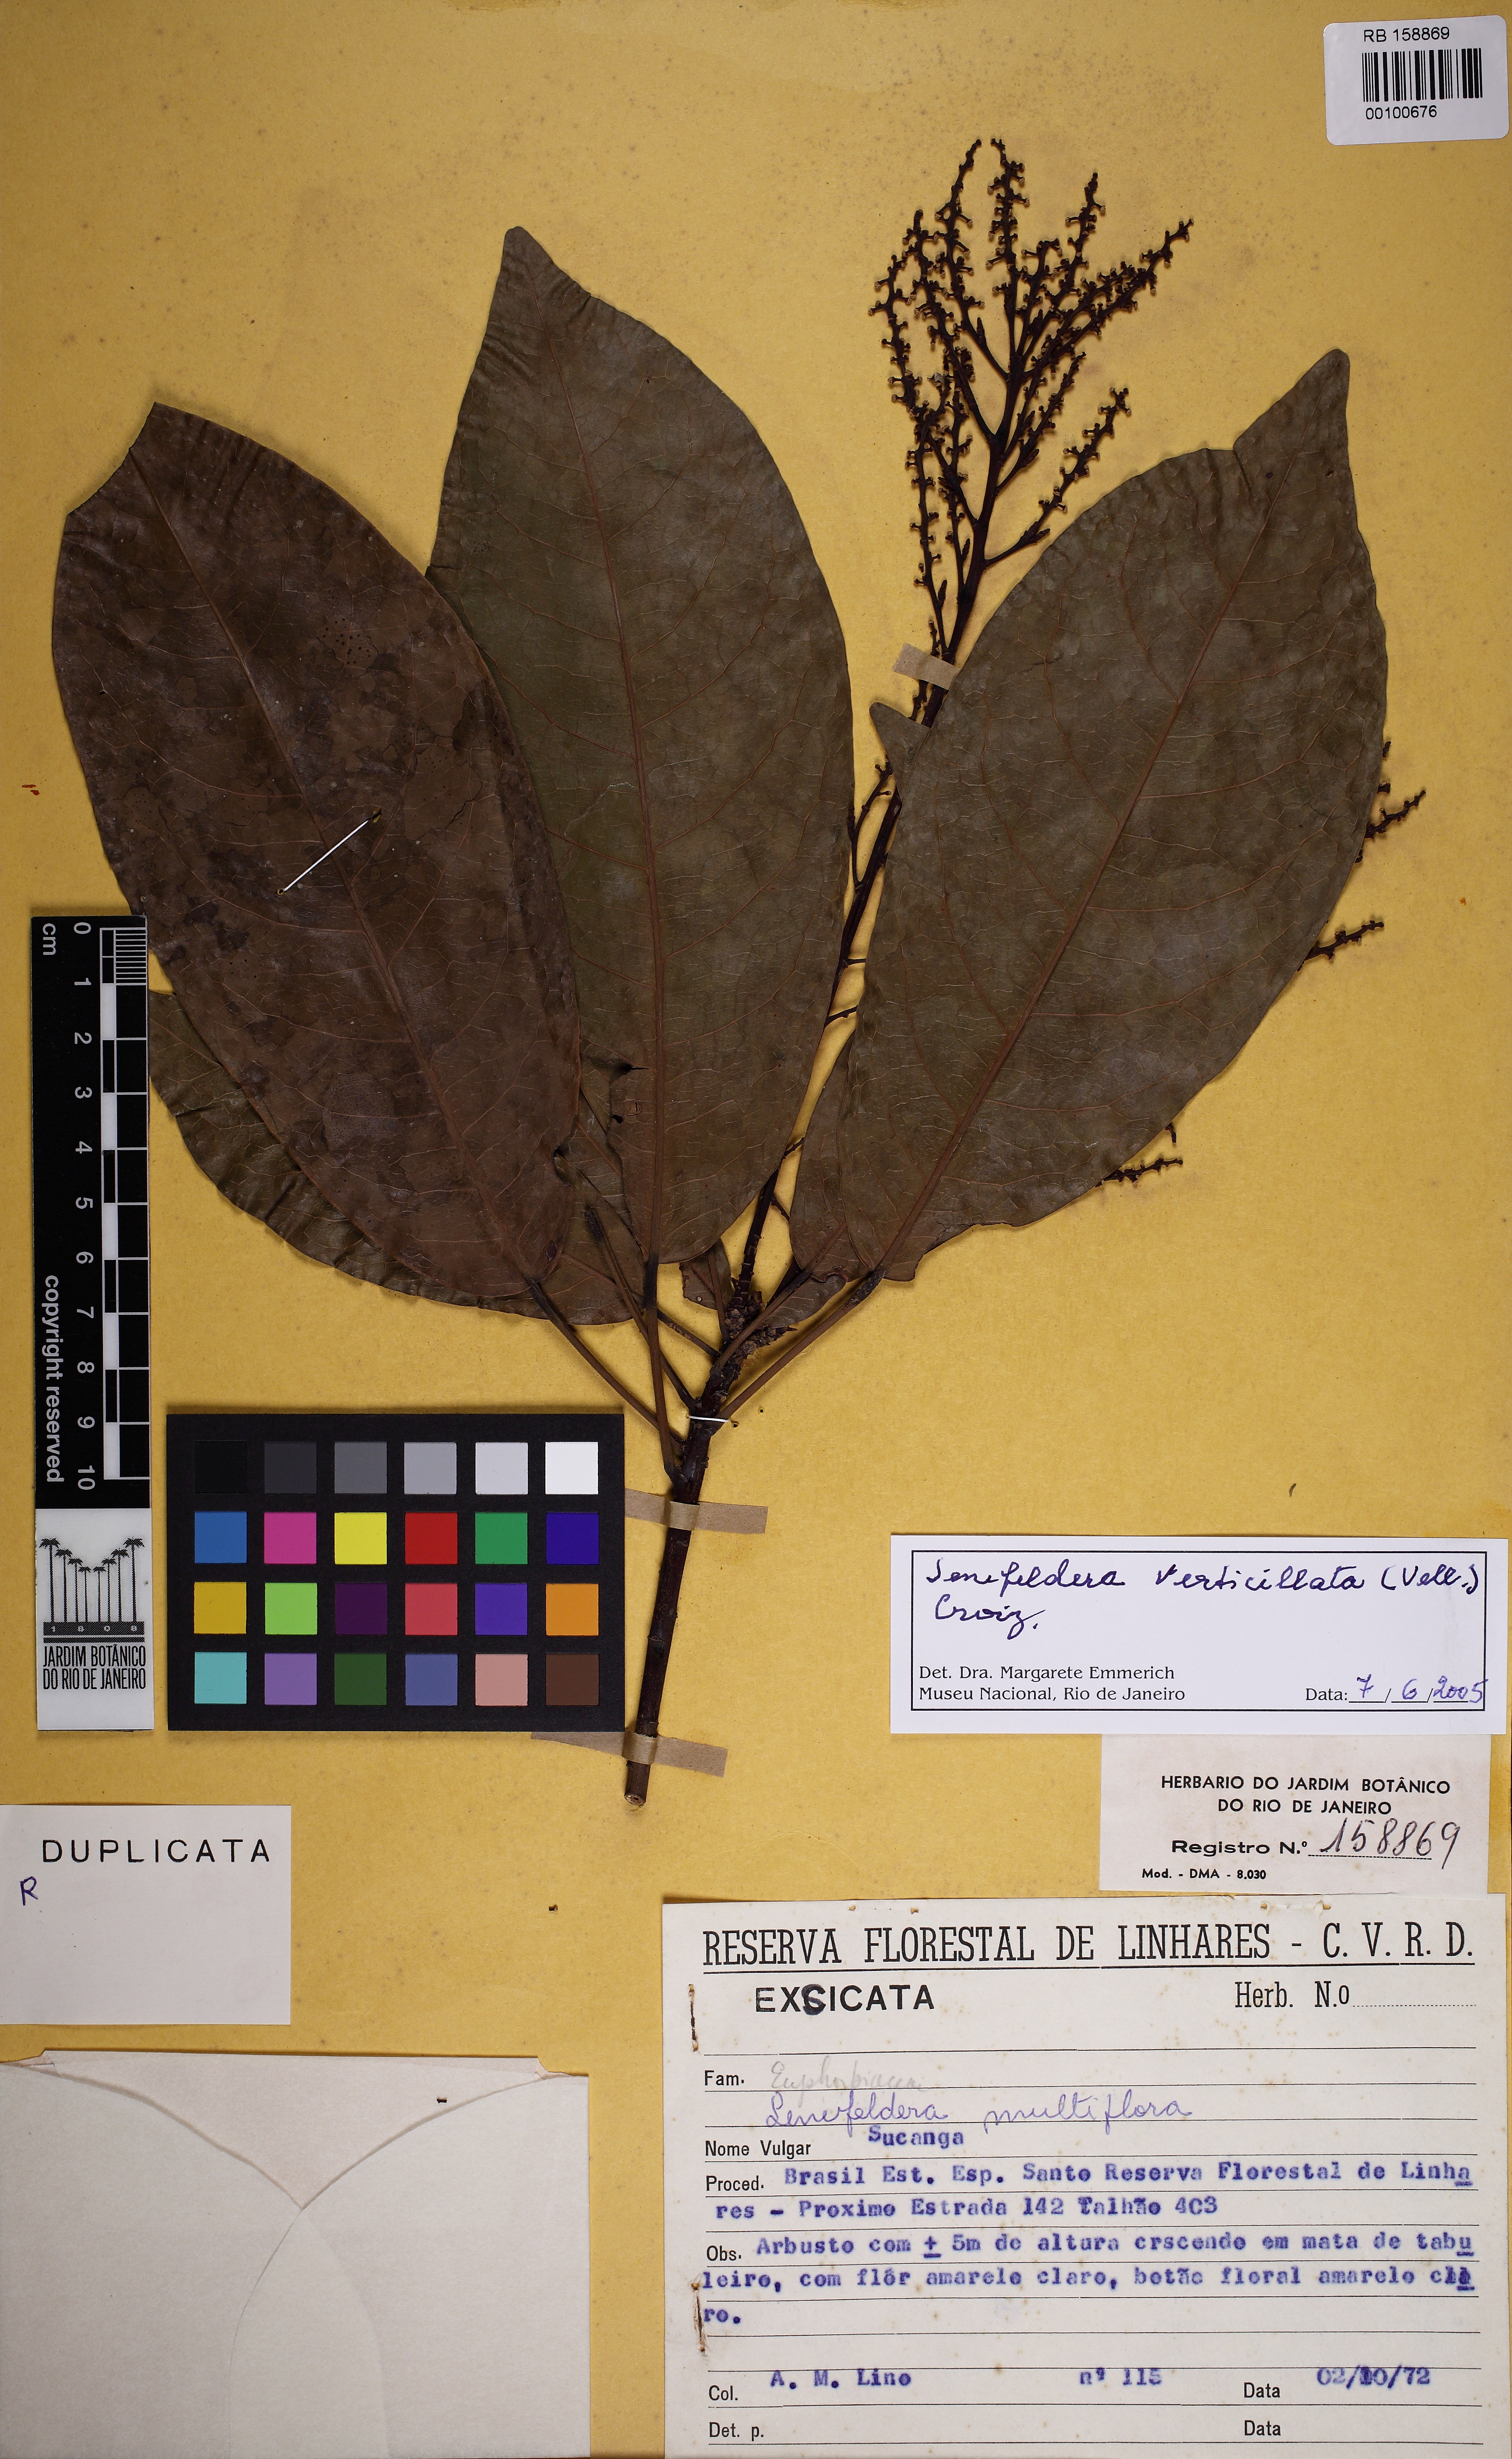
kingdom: Plantae
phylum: Tracheophyta
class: Magnoliopsida
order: Malpighiales
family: Euphorbiaceae
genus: Senefeldera
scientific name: Senefeldera verticillata
